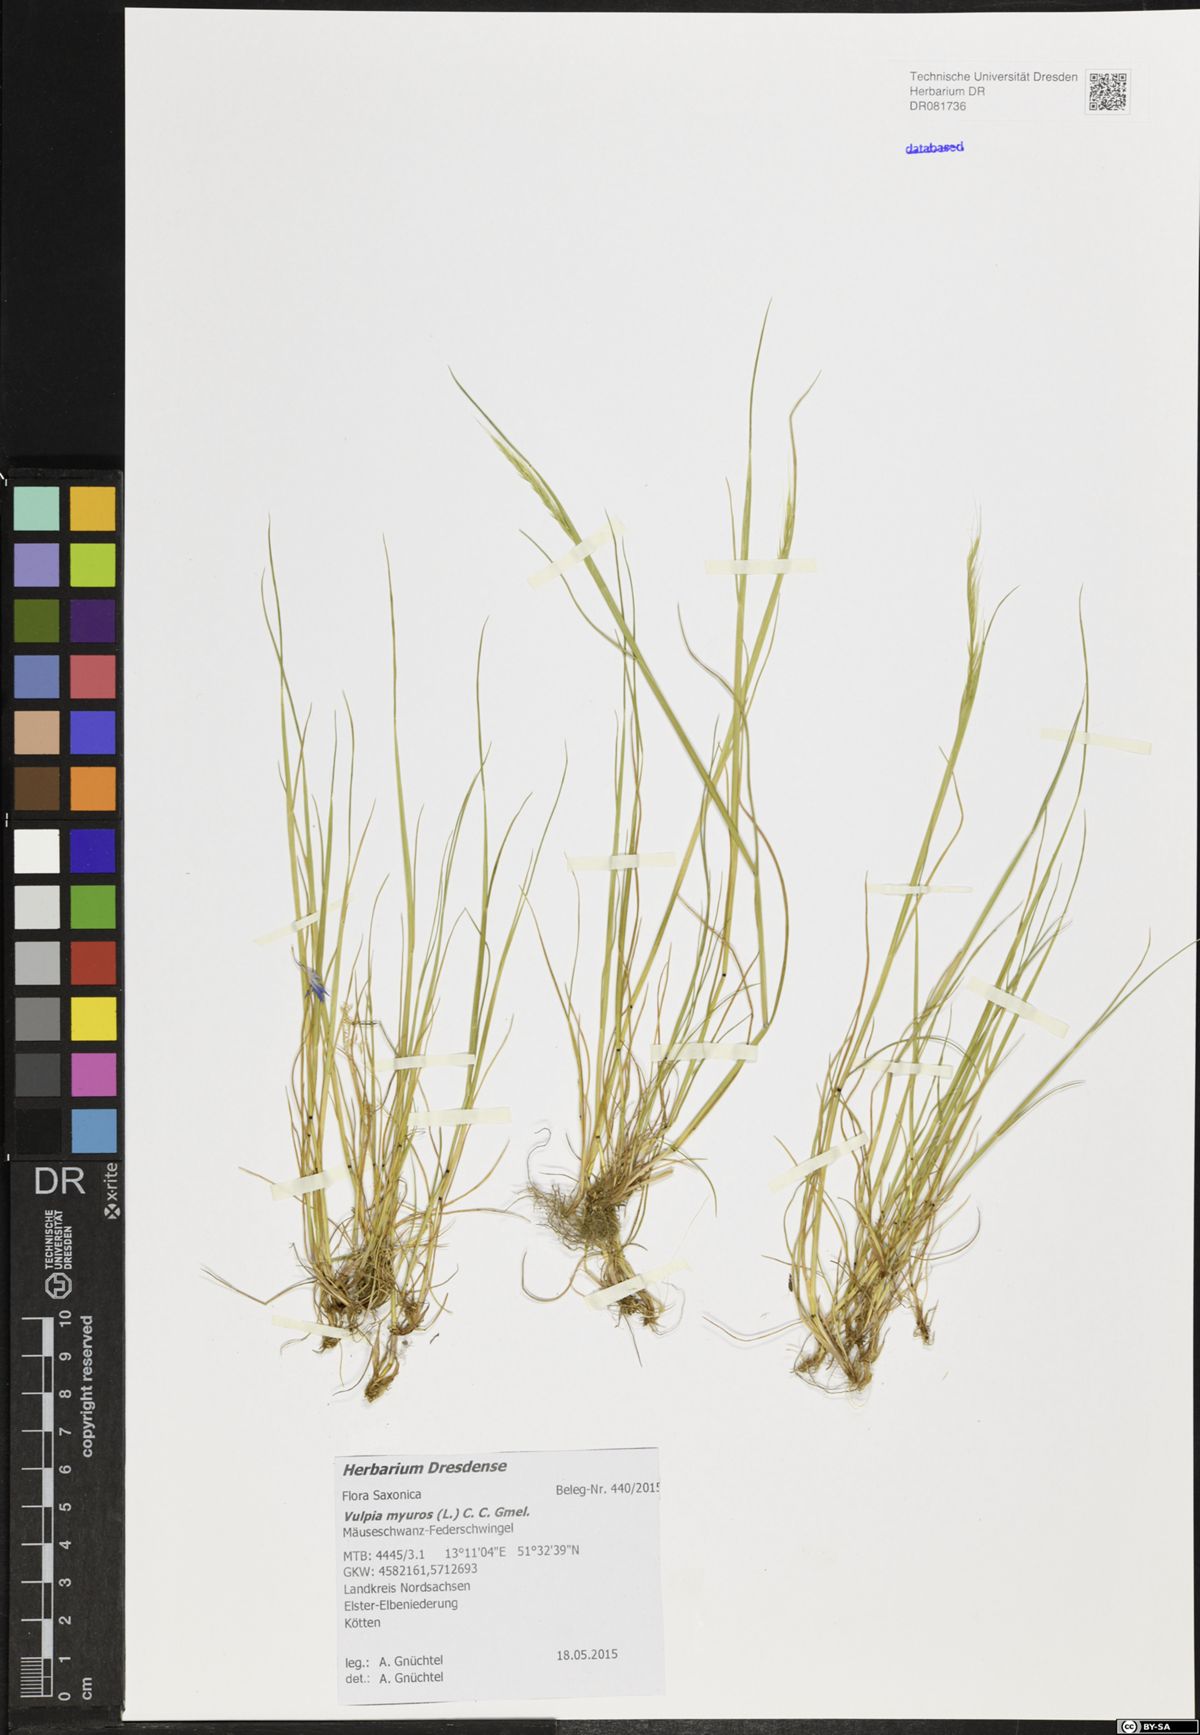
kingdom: Plantae
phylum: Tracheophyta
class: Liliopsida
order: Poales
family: Poaceae
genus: Festuca
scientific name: Festuca myuros
